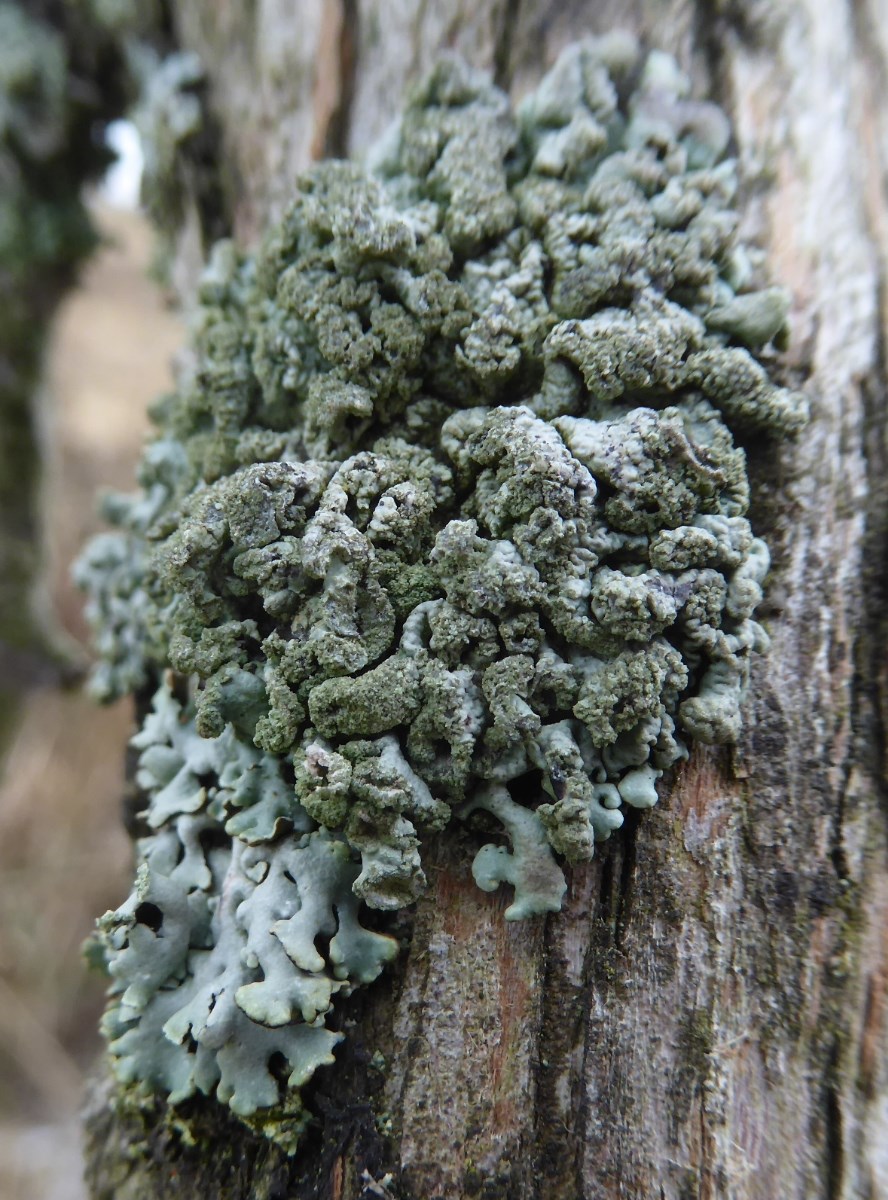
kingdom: Fungi
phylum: Ascomycota
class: Lecanoromycetes
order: Lecanorales
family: Parmeliaceae
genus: Hypogymnia
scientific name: Hypogymnia physodes
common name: almindelig kvistlav
